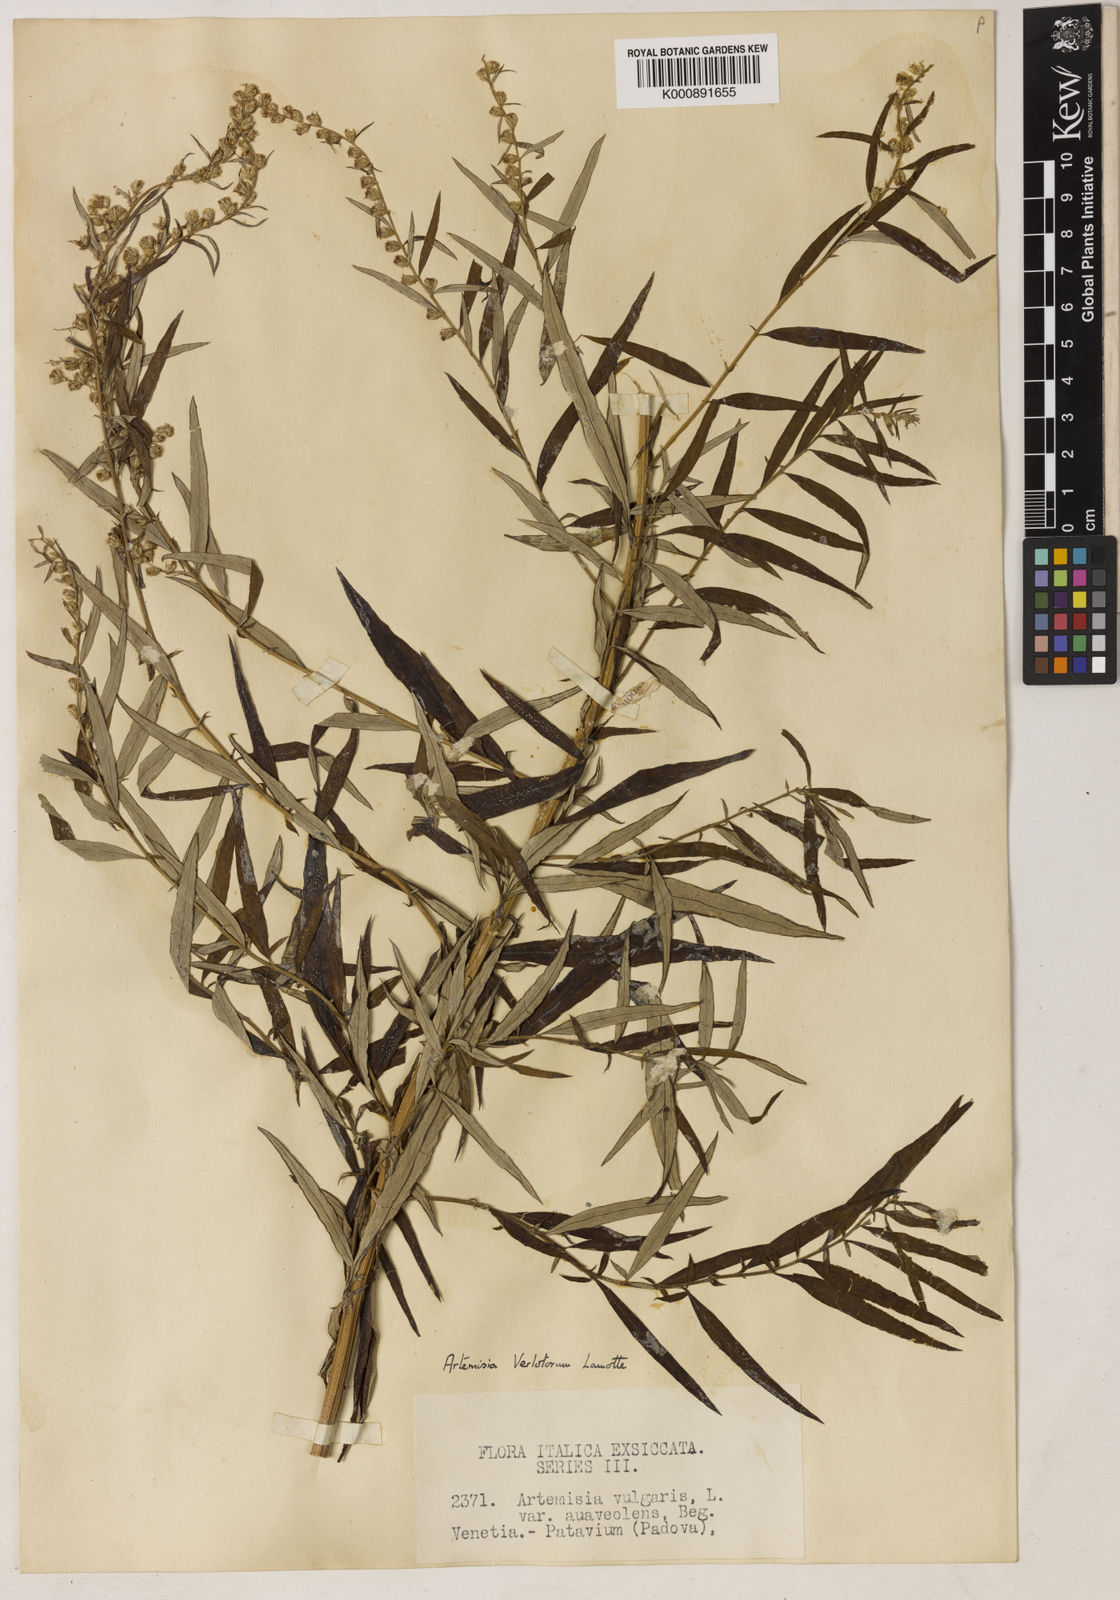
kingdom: Plantae
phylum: Tracheophyta
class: Magnoliopsida
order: Asterales
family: Asteraceae
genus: Artemisia
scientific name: Artemisia verlotiorum
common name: Chinese mugwort
